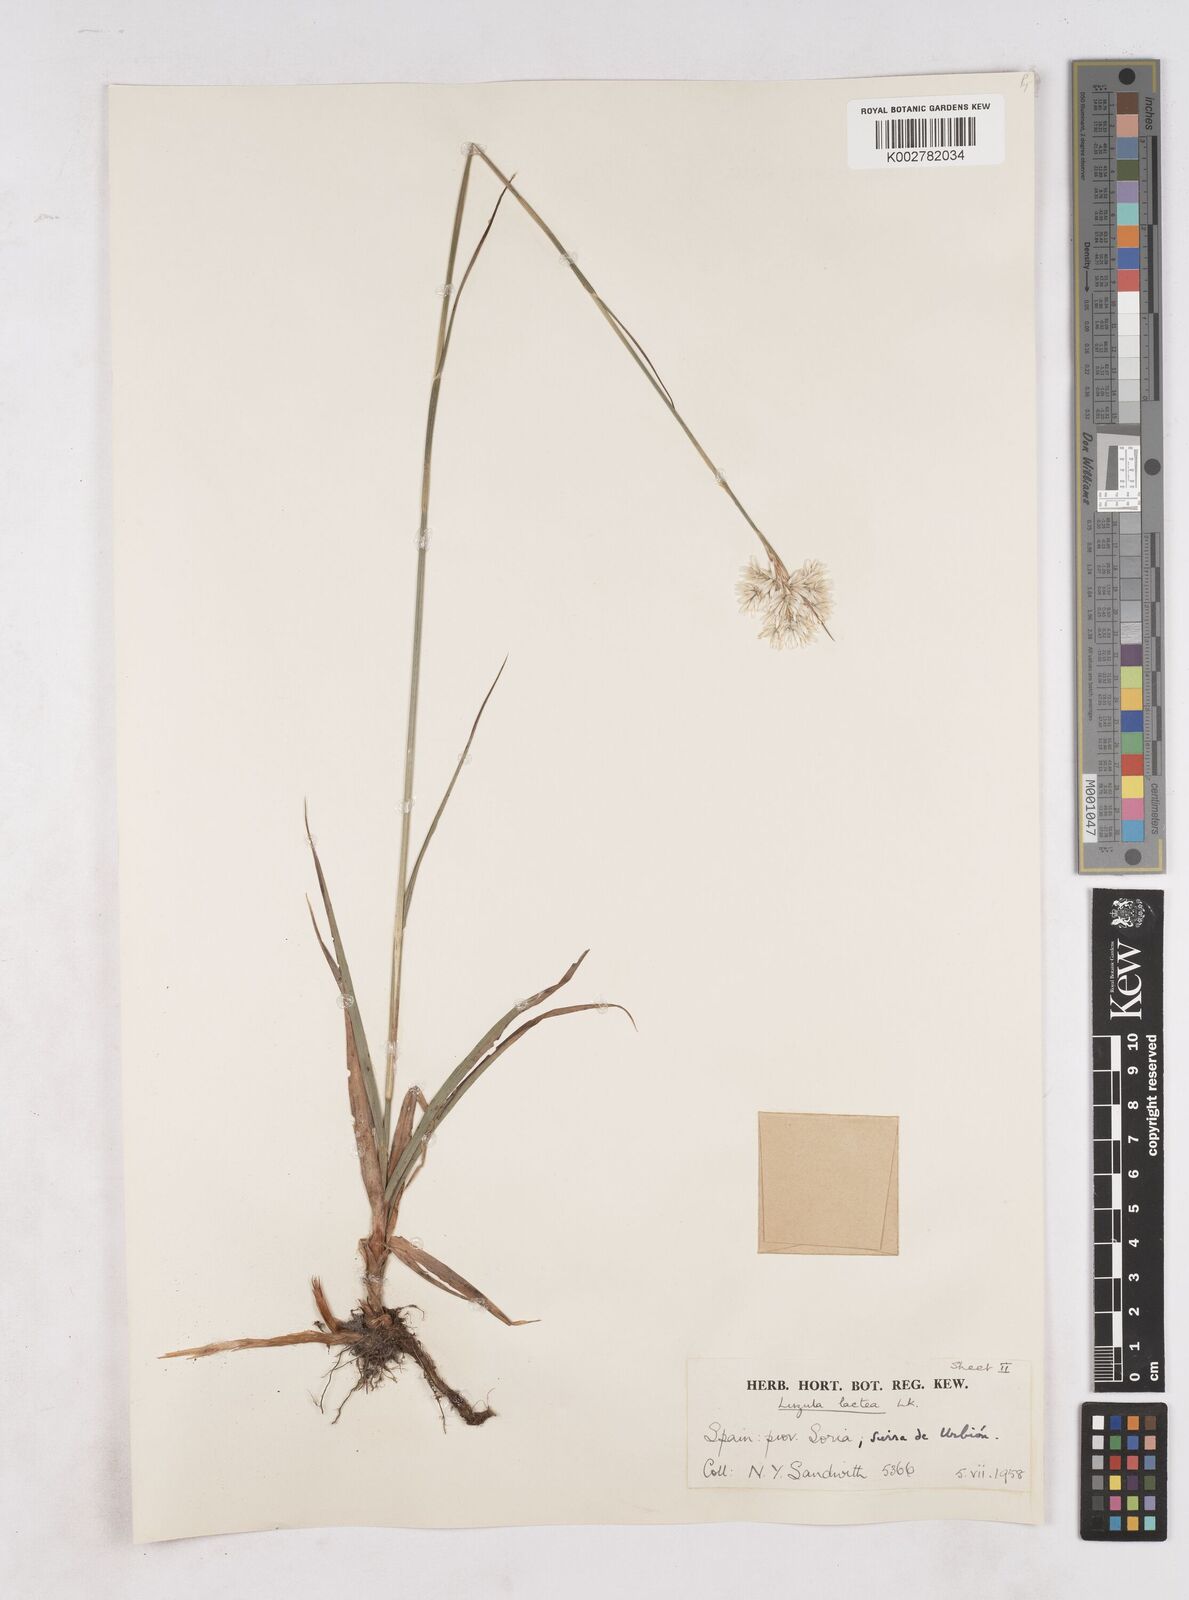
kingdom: Plantae
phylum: Tracheophyta
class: Liliopsida
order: Poales
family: Juncaceae
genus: Luzula
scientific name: Luzula lactea
